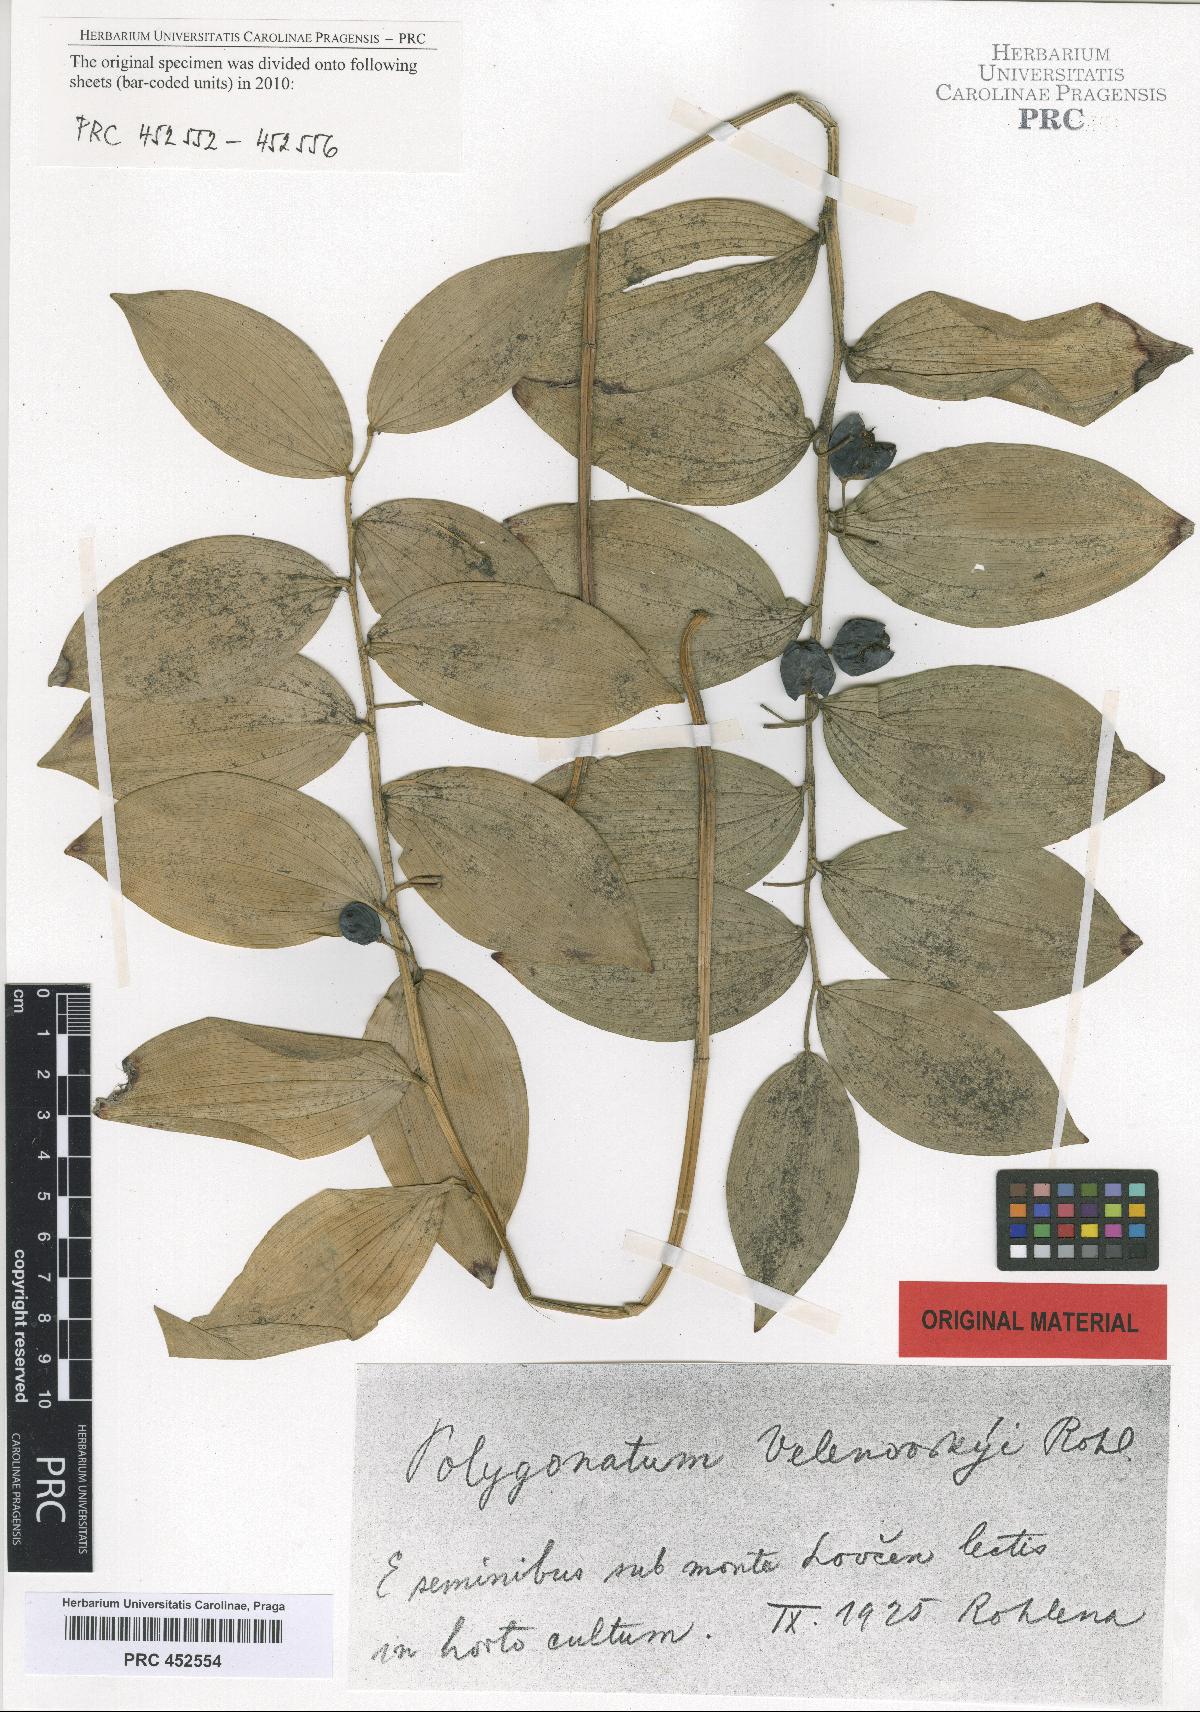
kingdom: Plantae
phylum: Tracheophyta
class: Liliopsida
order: Asparagales
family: Asparagaceae
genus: Polygonatum
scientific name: Polygonatum velenovskyi
